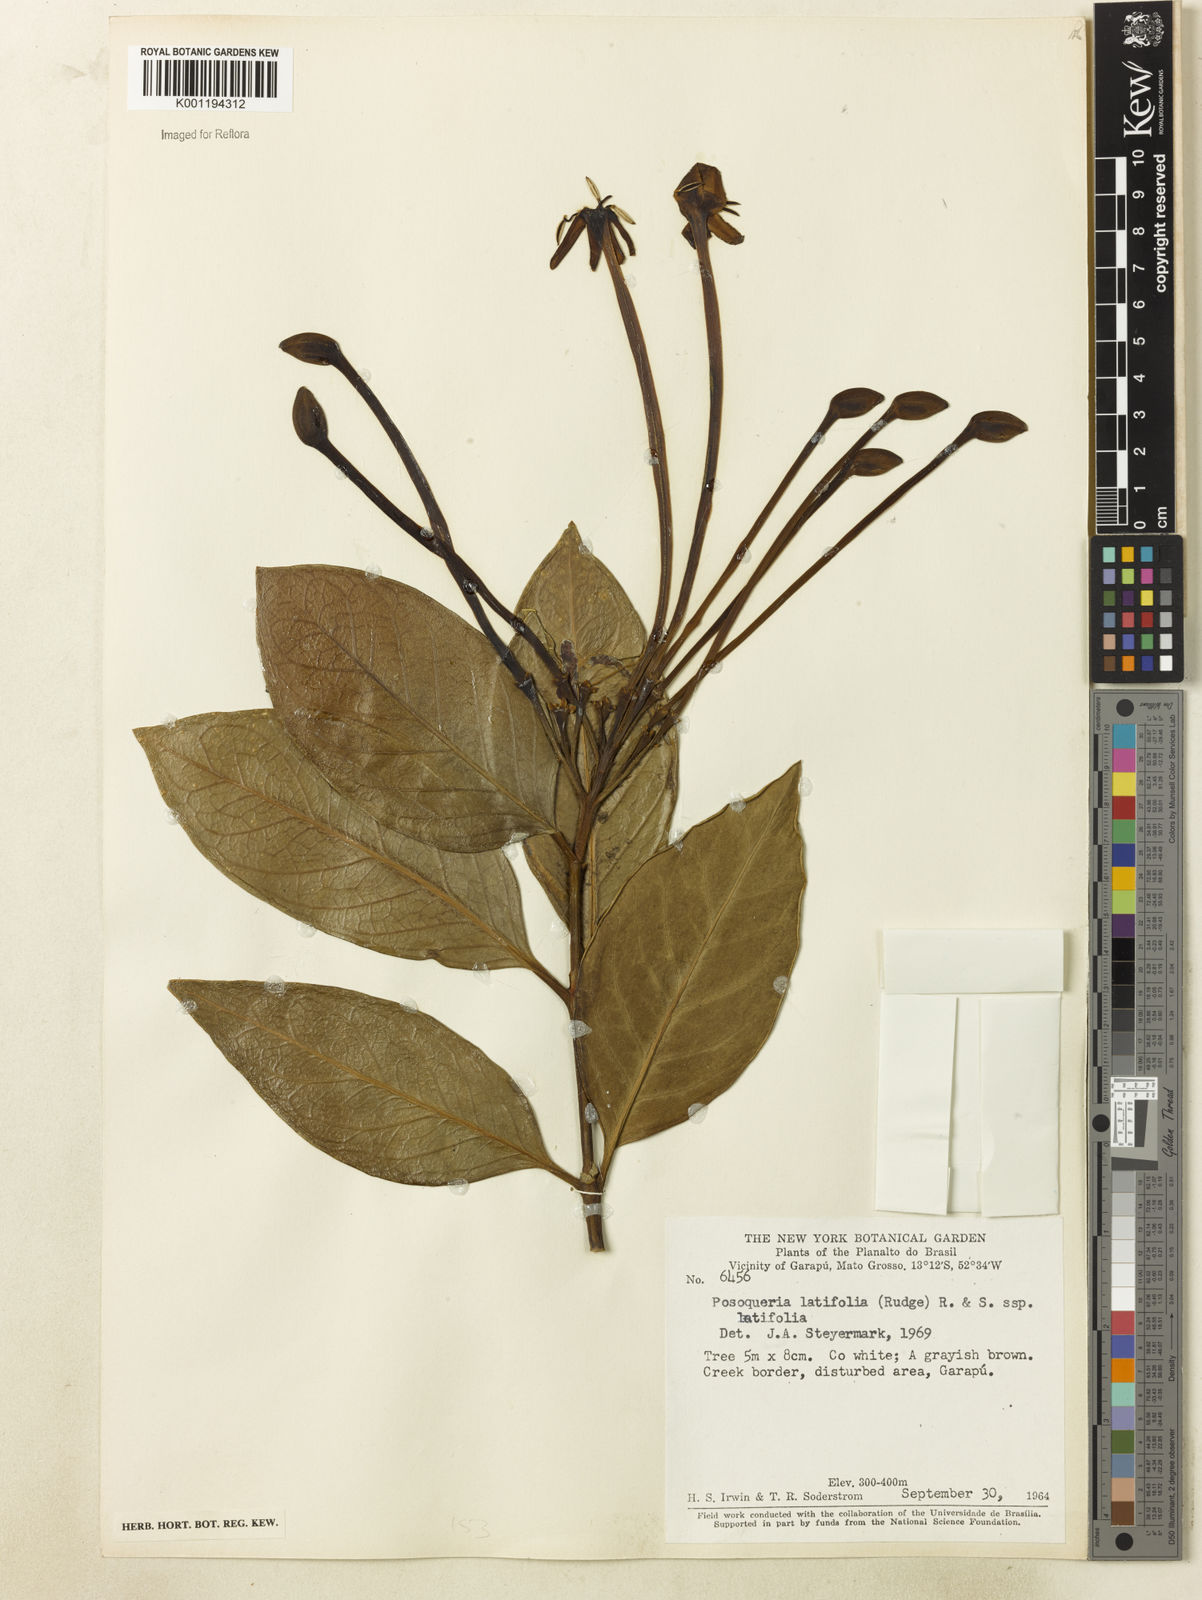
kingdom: Plantae
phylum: Tracheophyta
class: Magnoliopsida
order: Gentianales
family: Rubiaceae
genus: Posoqueria
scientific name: Posoqueria latifolia
